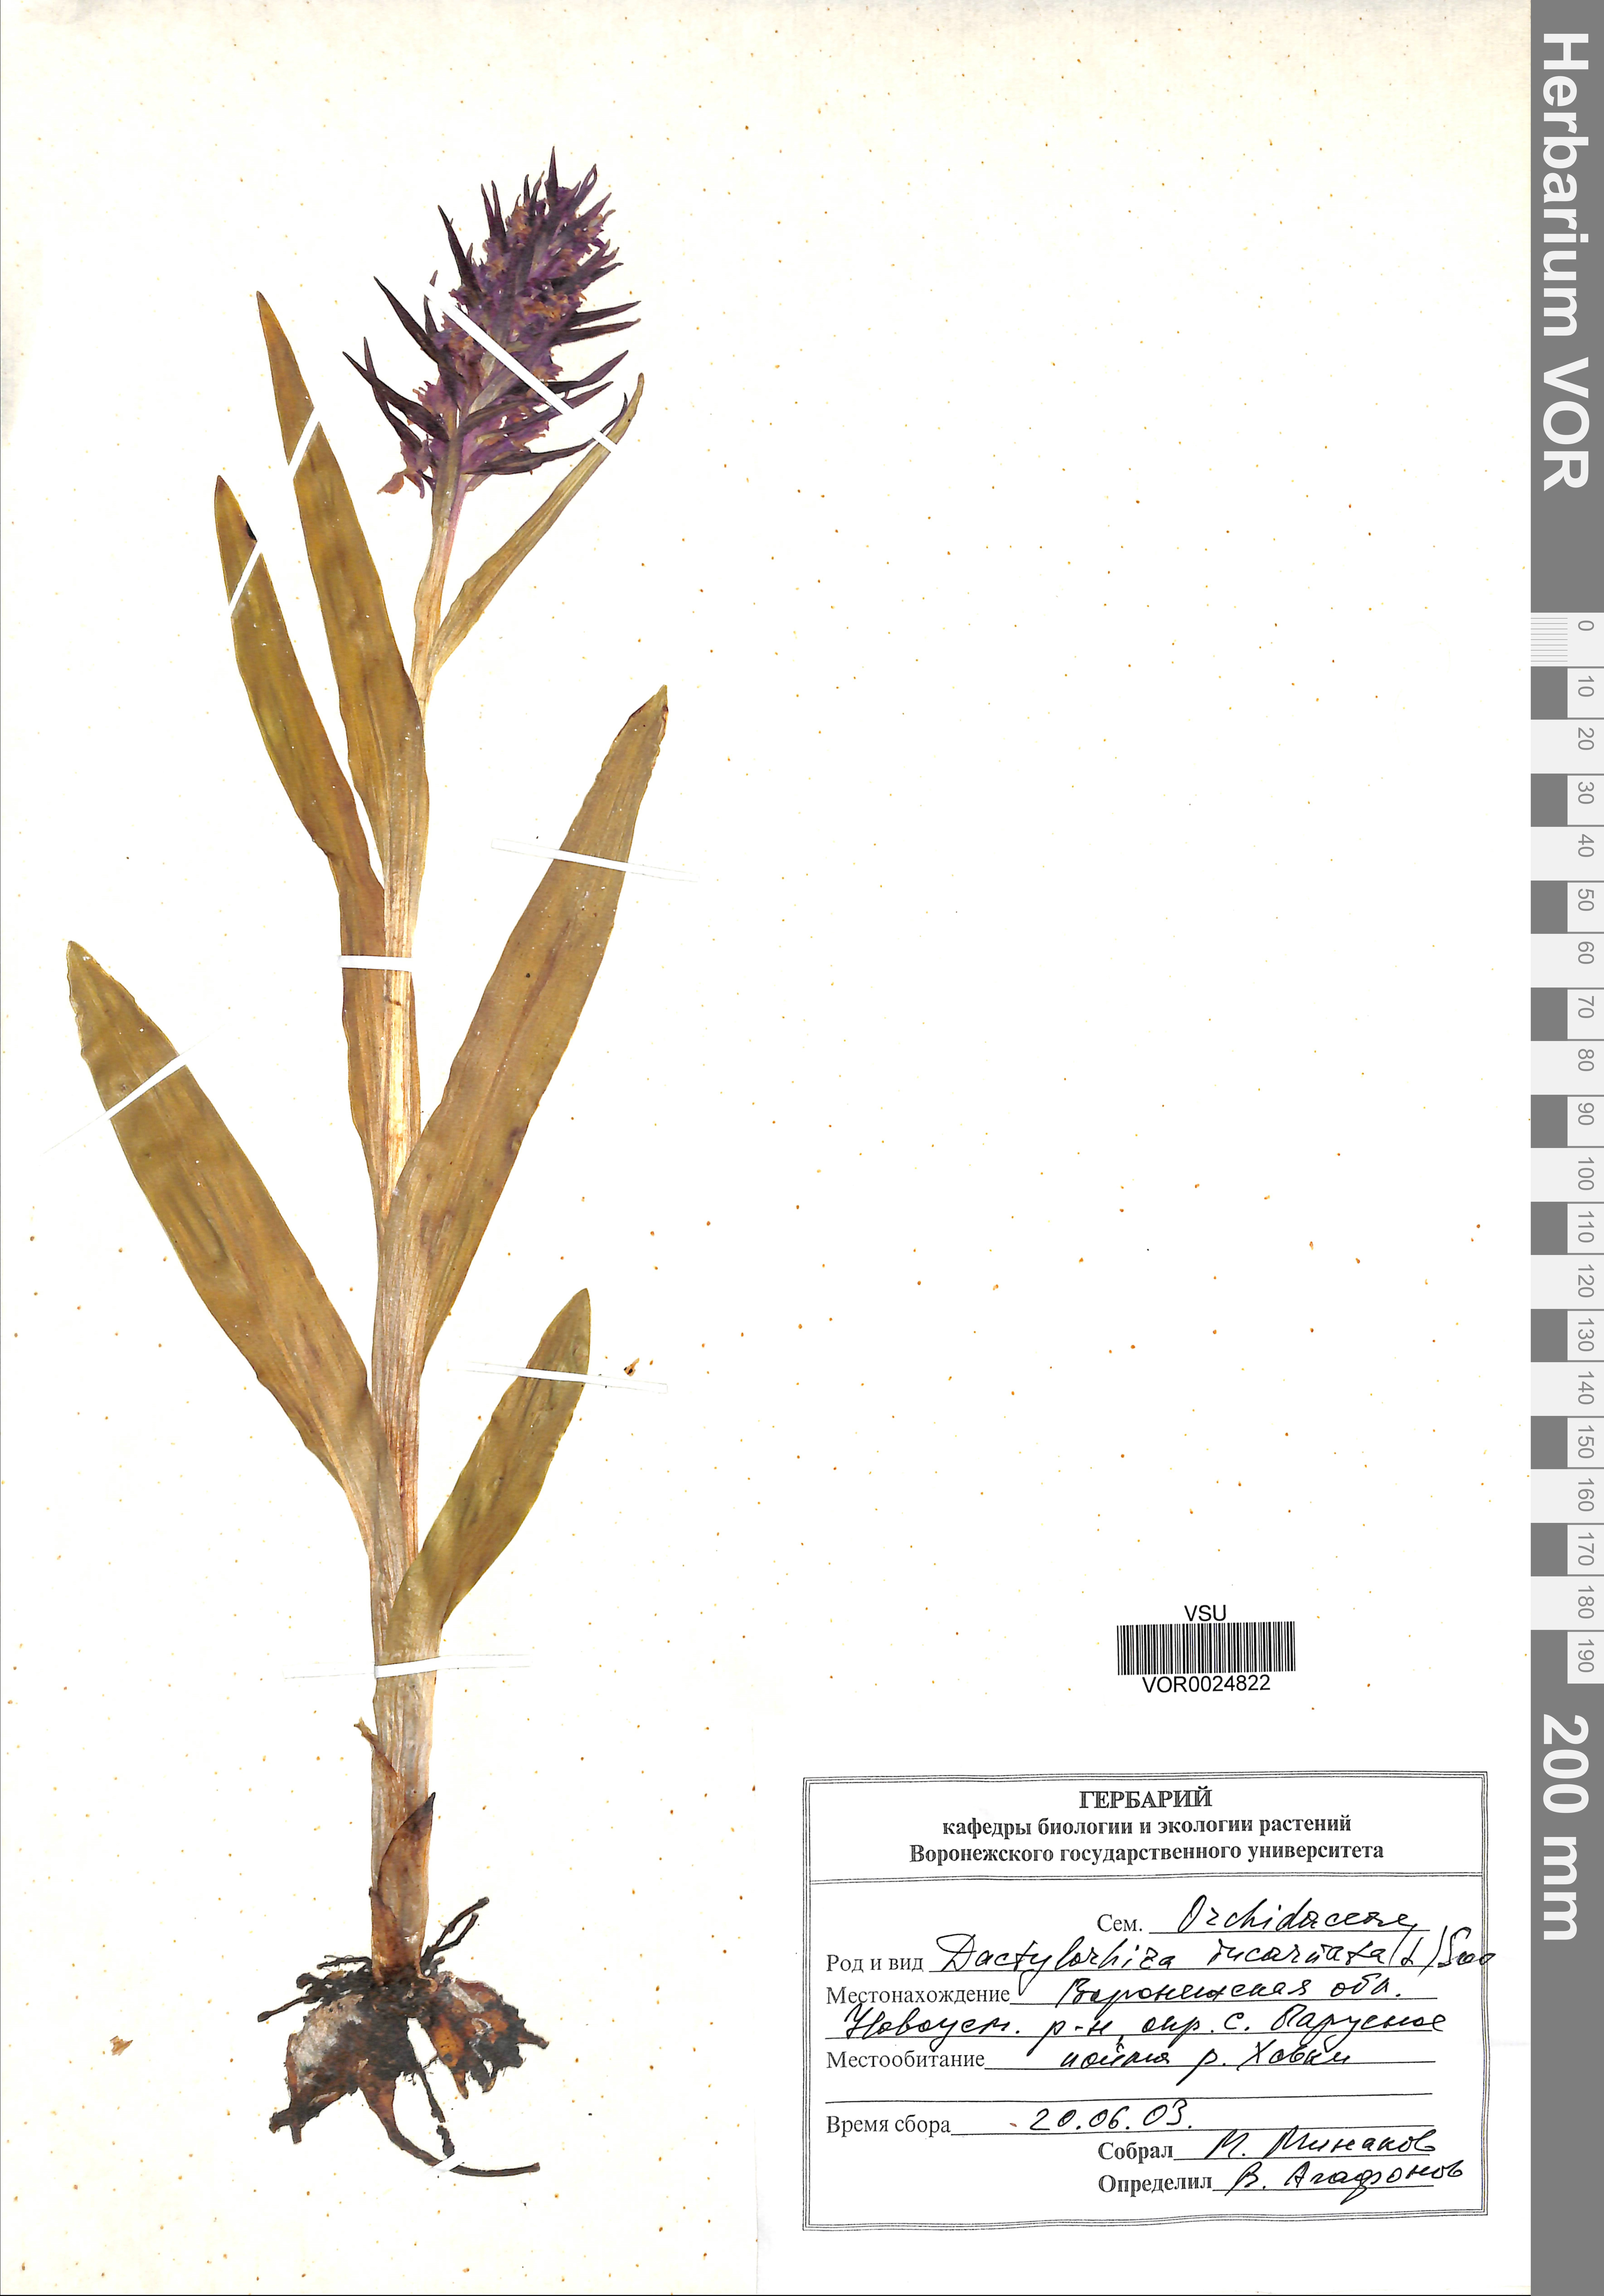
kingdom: Plantae
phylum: Tracheophyta
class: Liliopsida
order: Asparagales
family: Orchidaceae
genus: Dactylorhiza
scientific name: Dactylorhiza incarnata
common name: Early marsh-orchid
